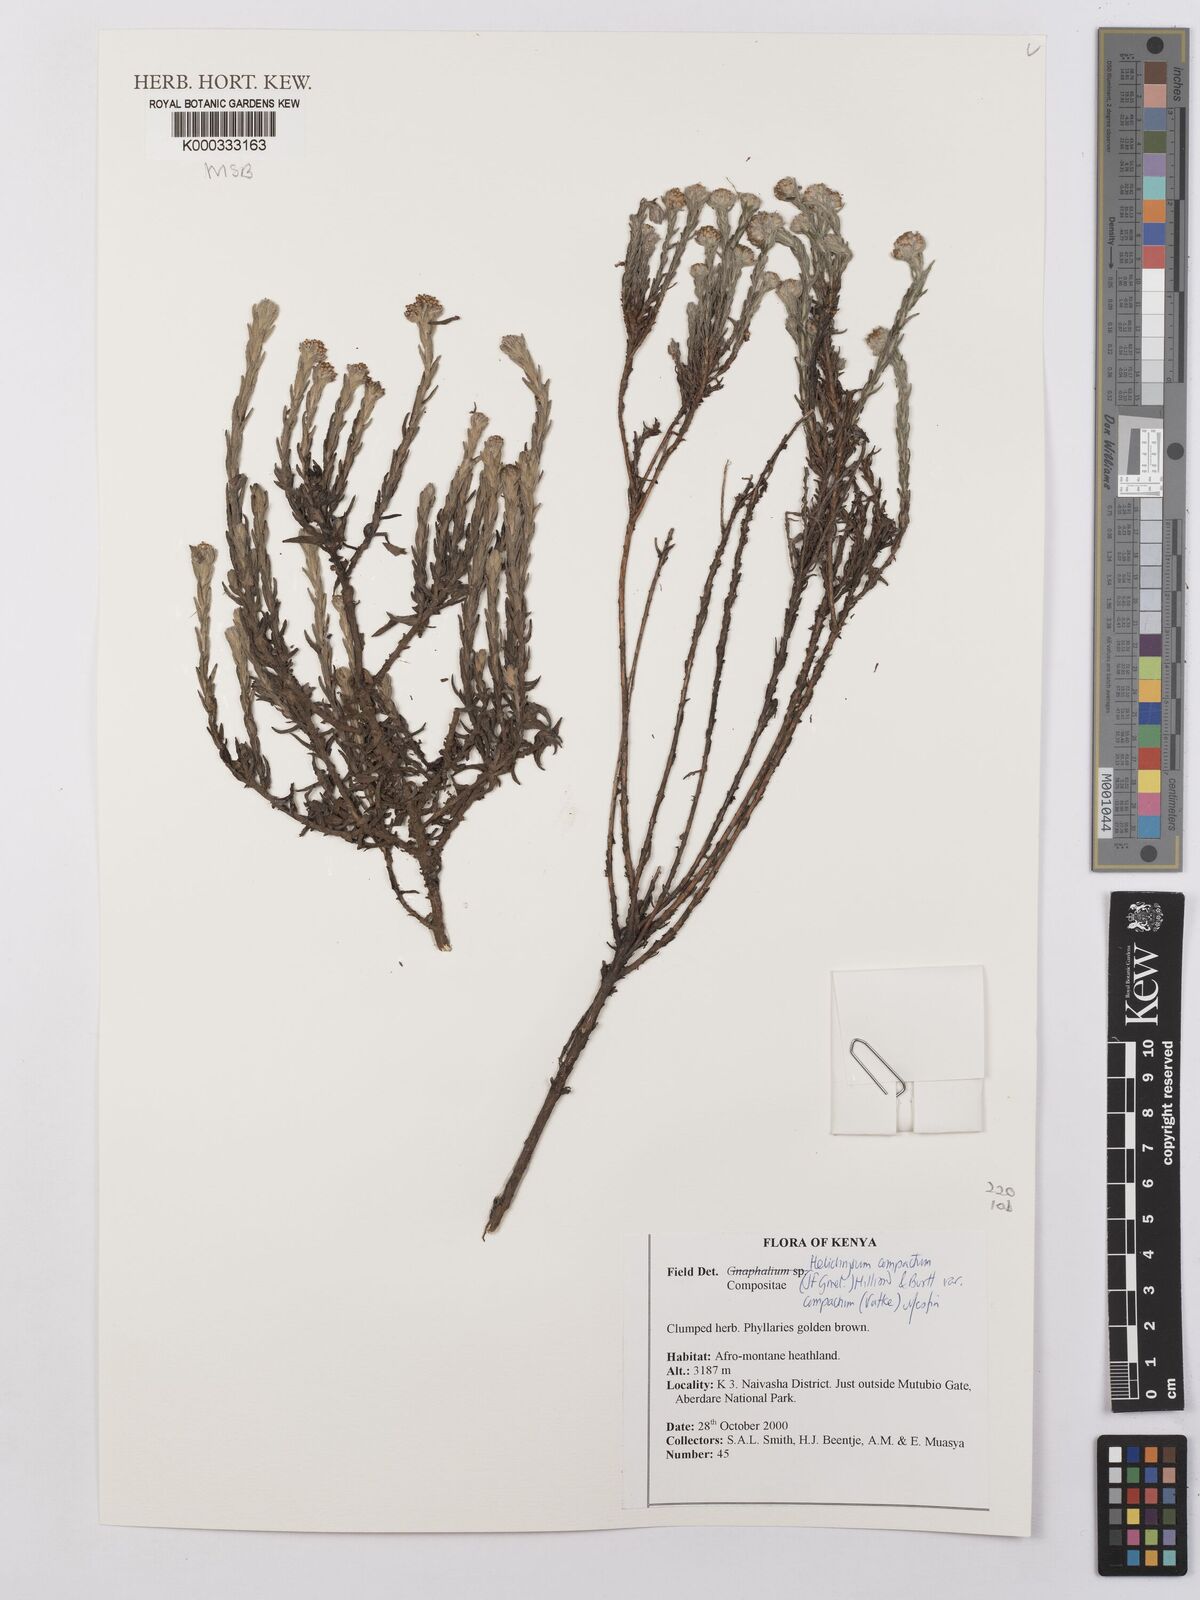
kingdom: Plantae
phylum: Tracheophyta
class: Magnoliopsida
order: Asterales
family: Asteraceae
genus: Helichrysum
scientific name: Helichrysum forskahlii
